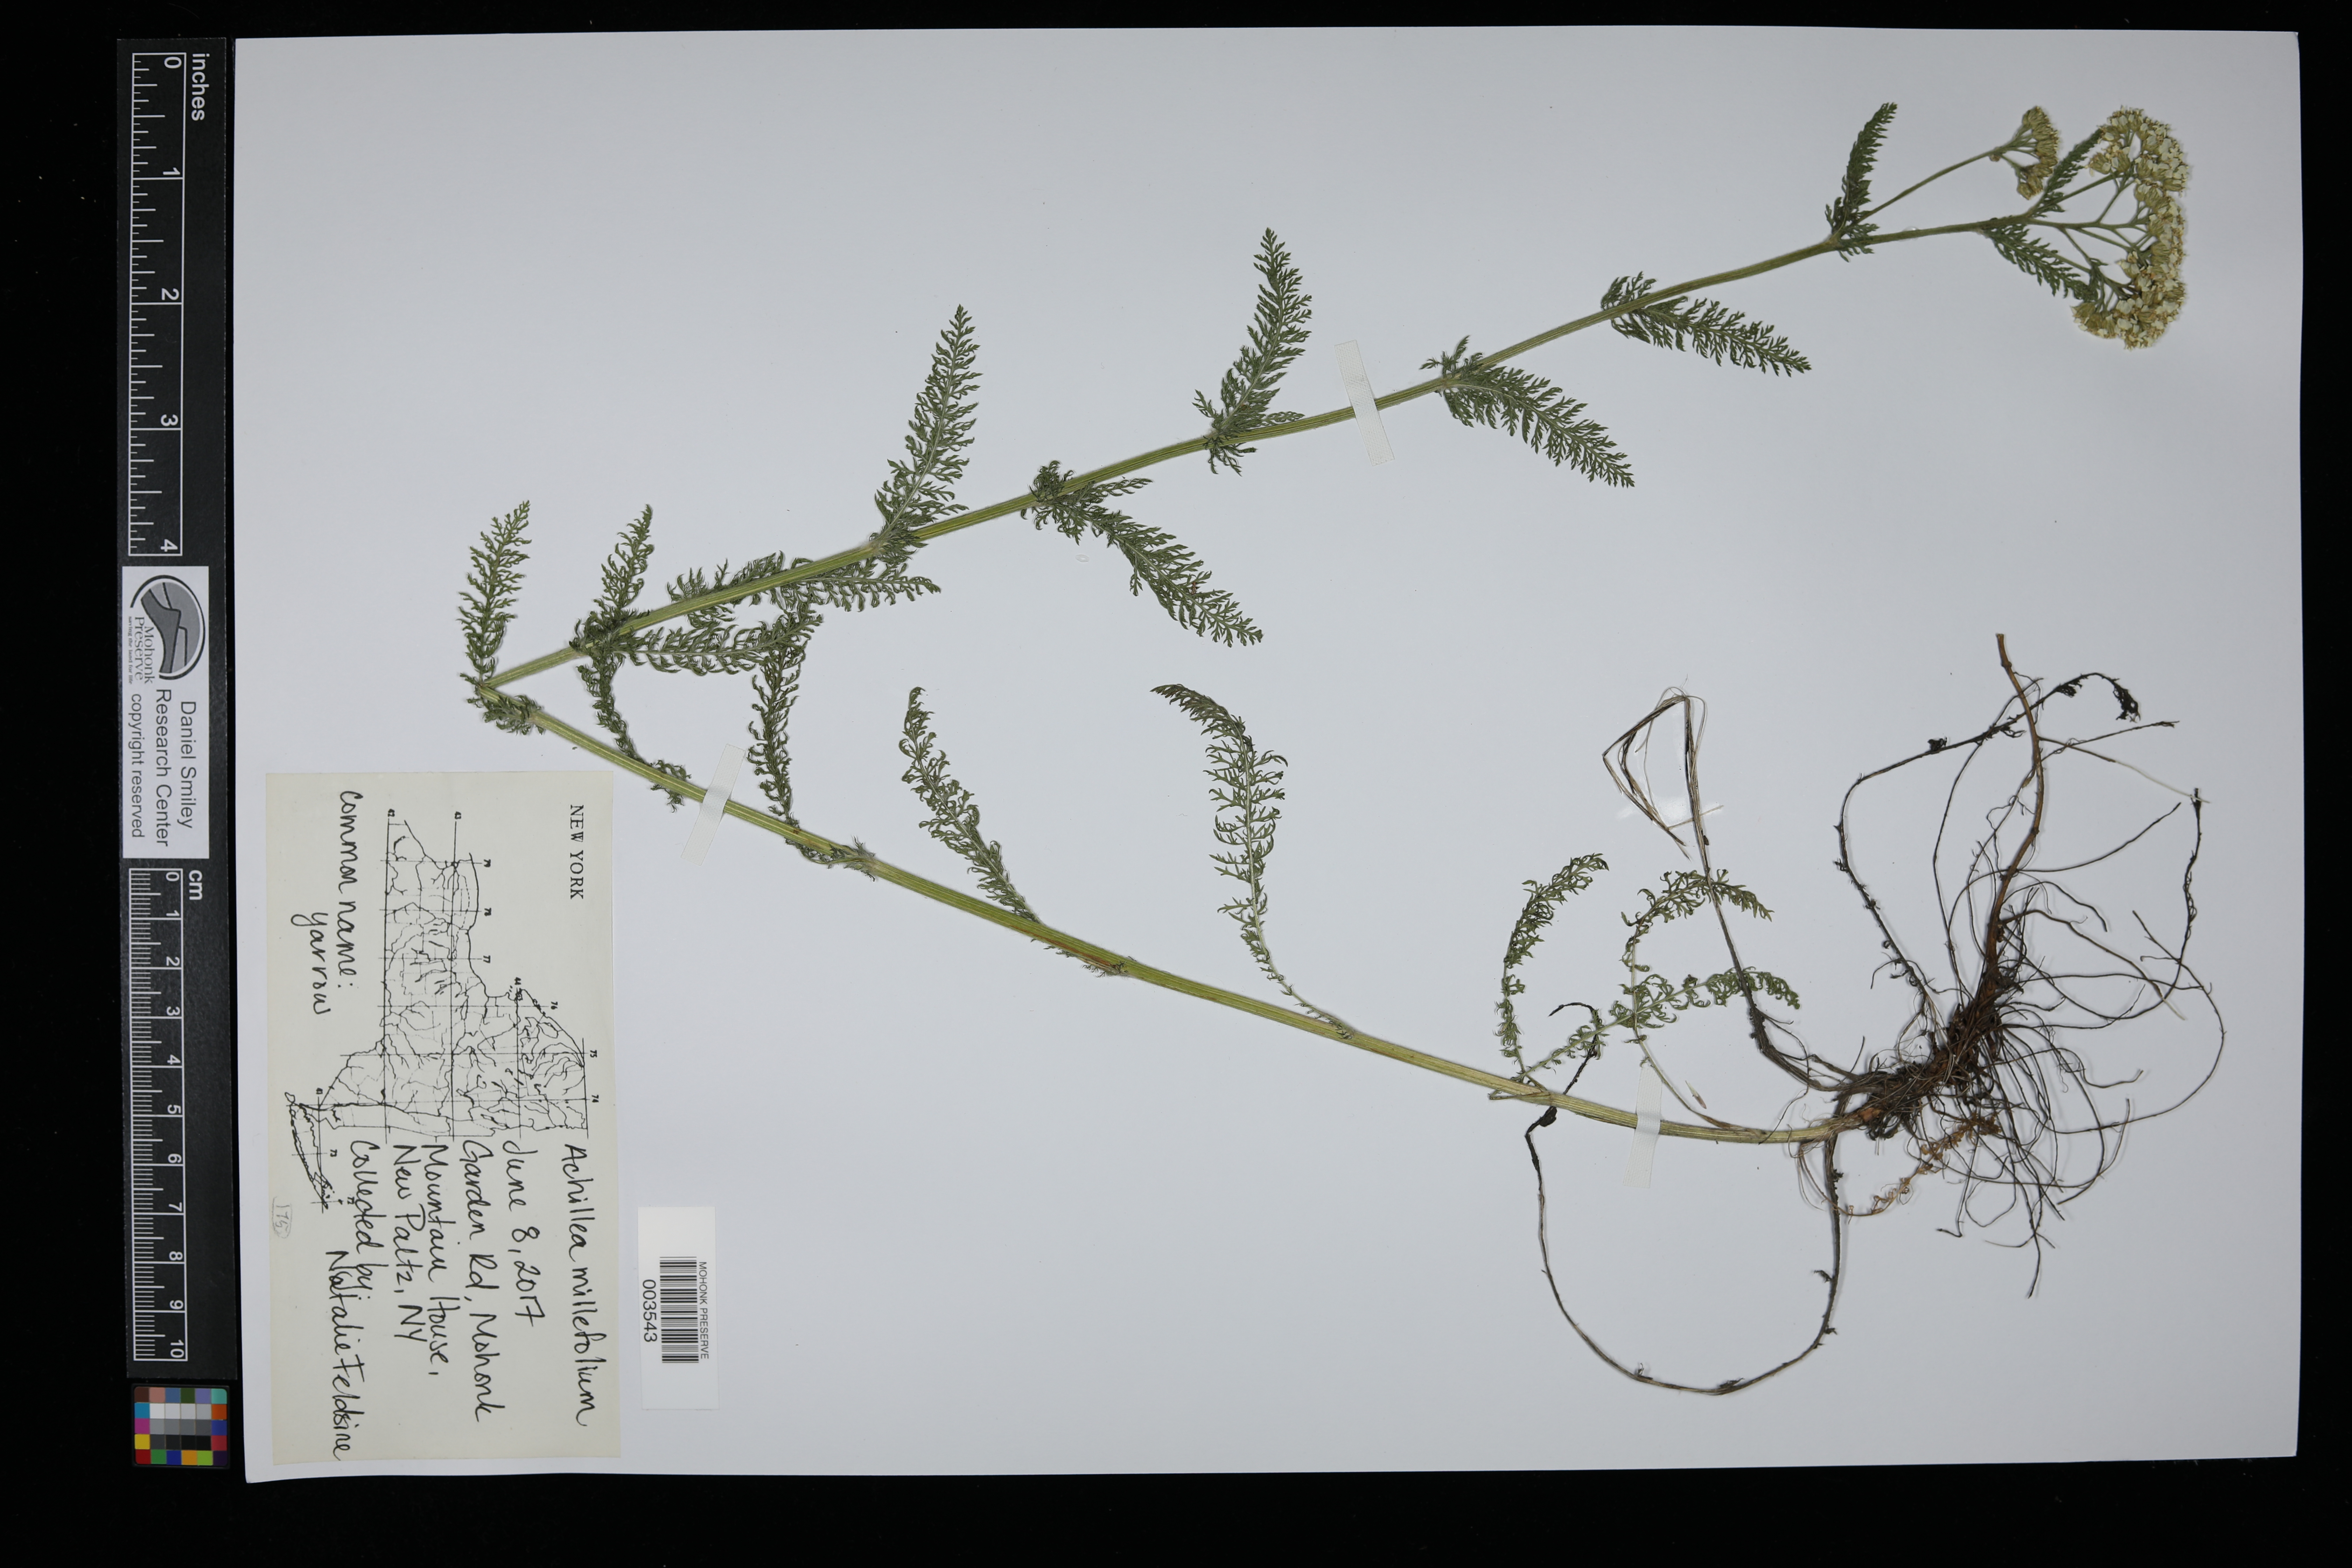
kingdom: Plantae
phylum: Tracheophyta
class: Magnoliopsida
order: Asterales
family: Asteraceae
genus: Achillea
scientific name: Achillea millefolium
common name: Yarrow
